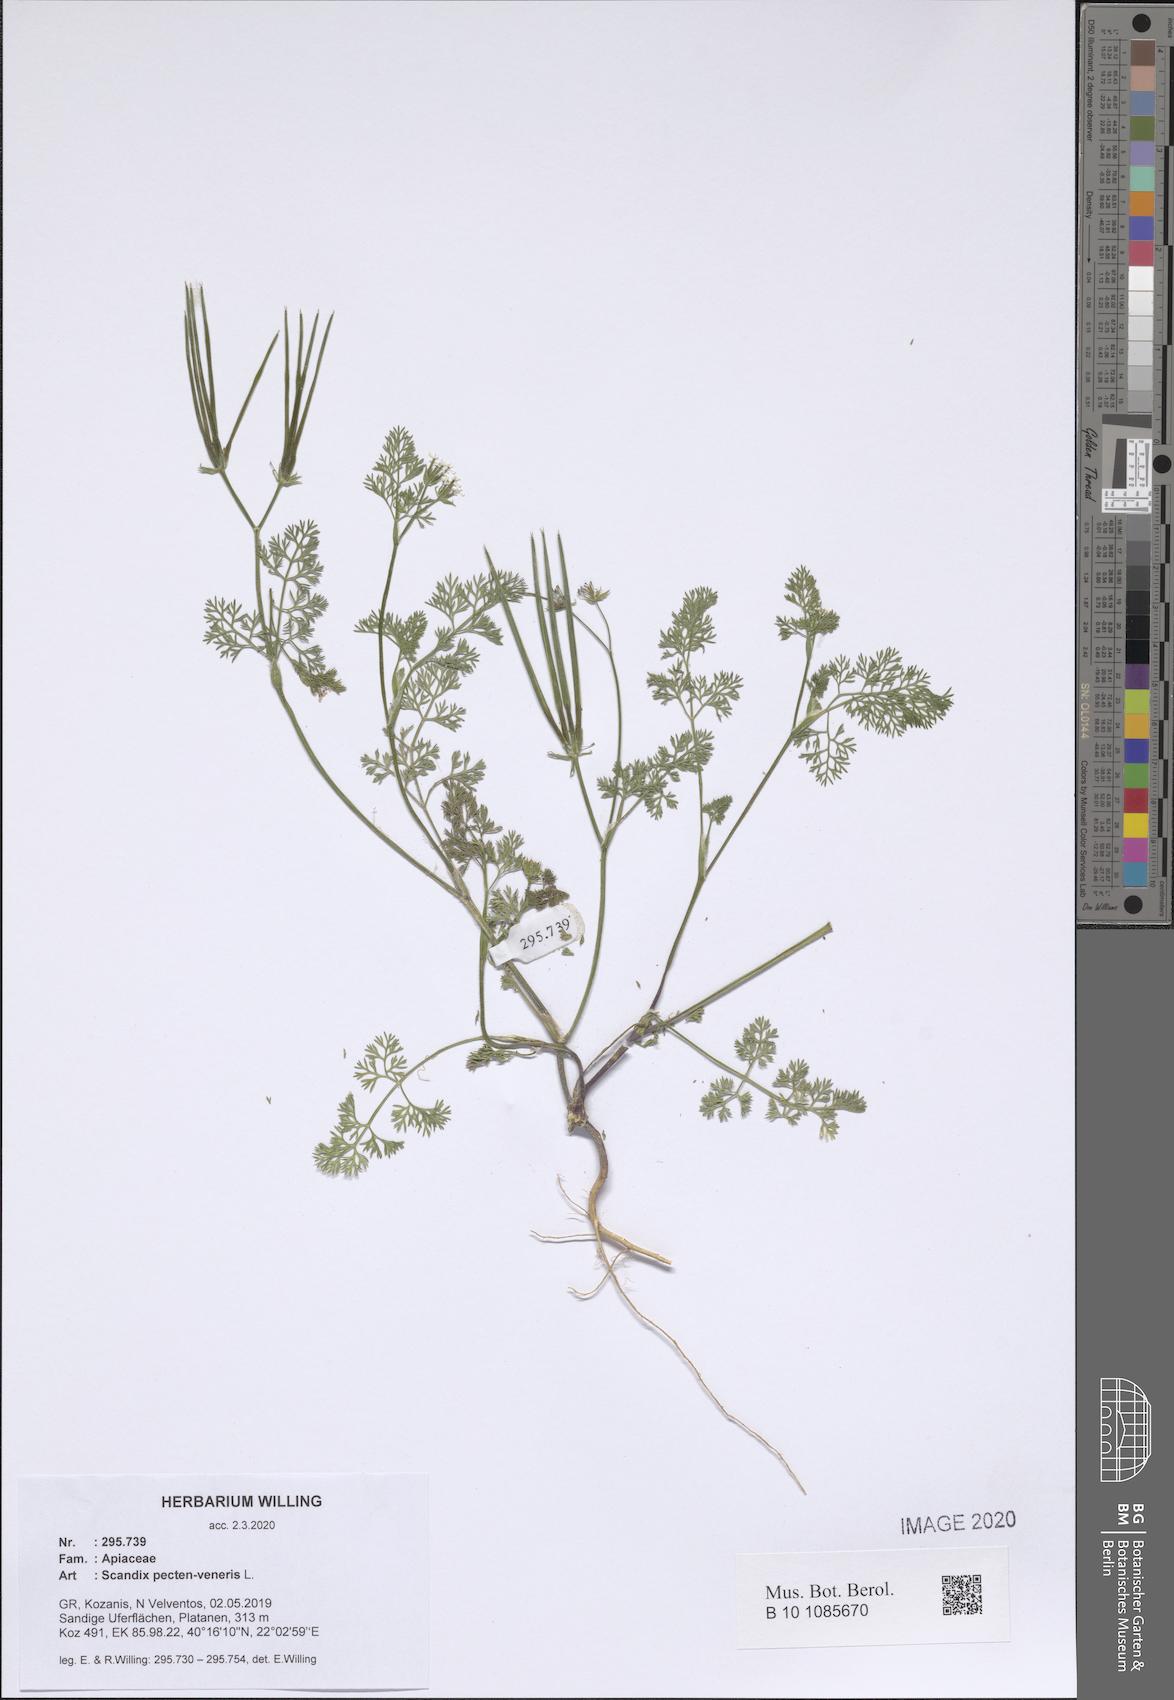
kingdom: Plantae
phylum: Tracheophyta
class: Magnoliopsida
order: Apiales
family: Apiaceae
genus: Scandix
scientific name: Scandix pecten-veneris
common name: Shepherd's-needle
